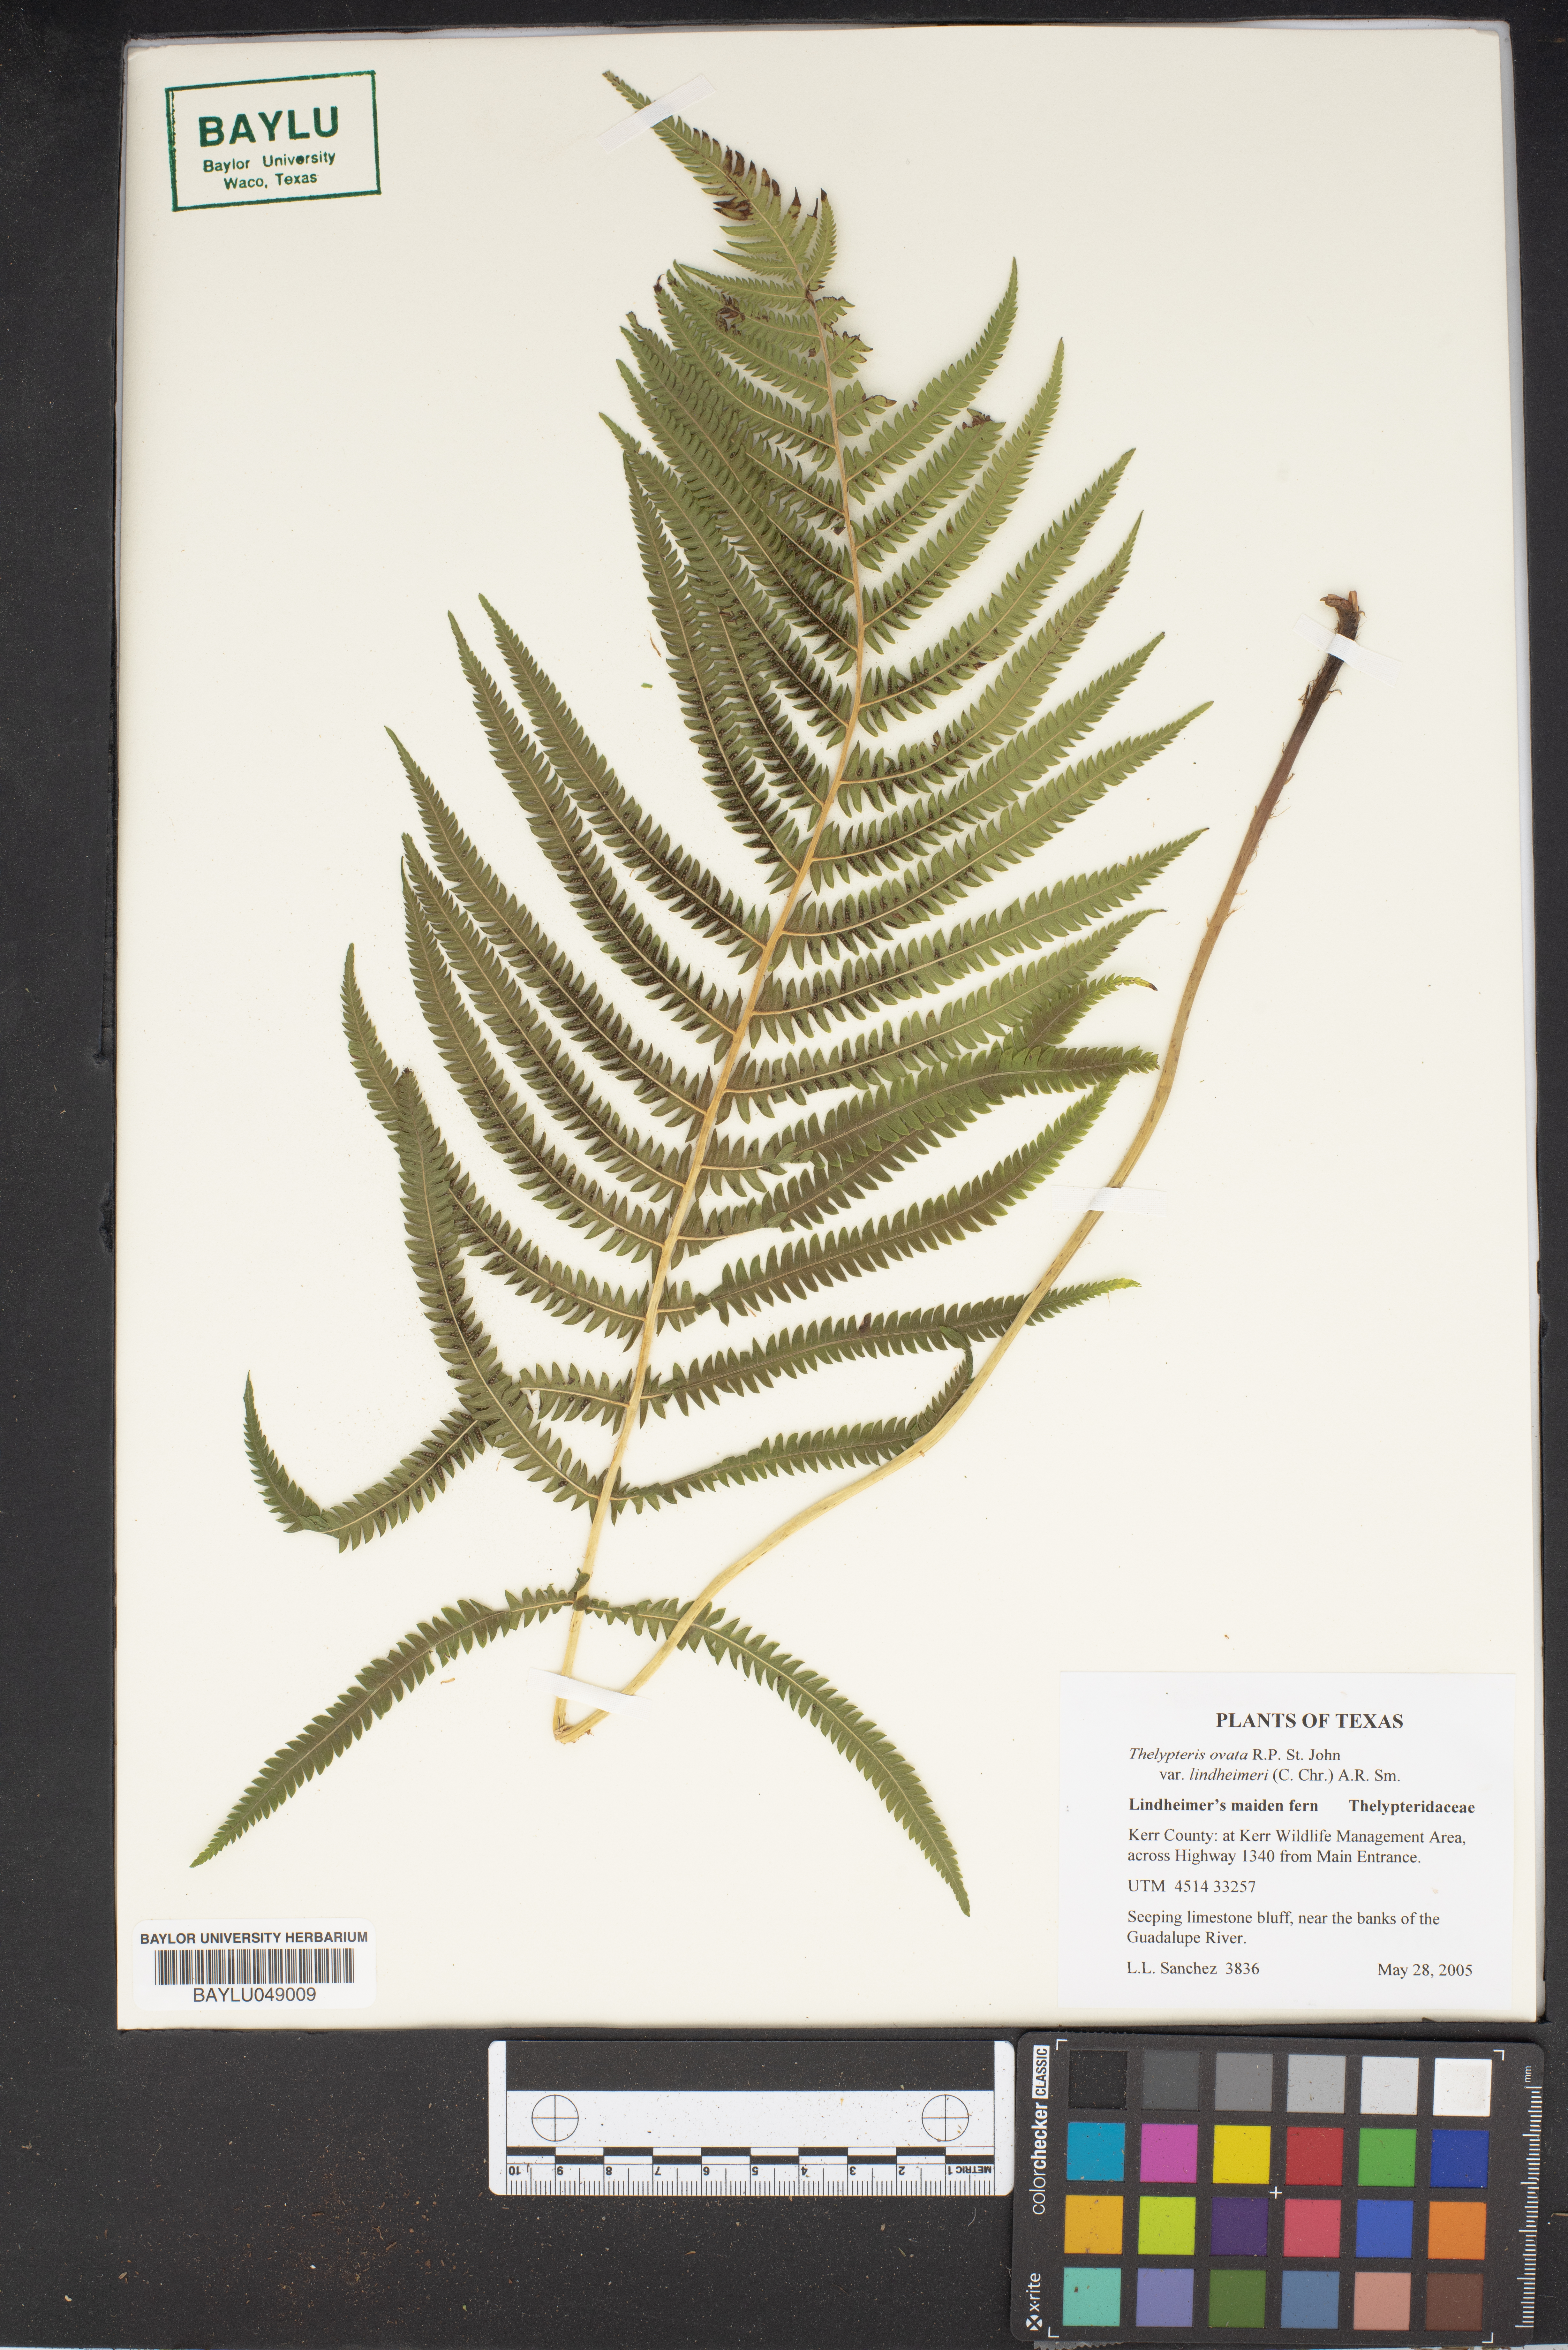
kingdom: Plantae
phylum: Tracheophyta
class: Magnoliopsida
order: Brassicales
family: Brassicaceae
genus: Mostacillastrum
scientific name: Mostacillastrum arcuatum
